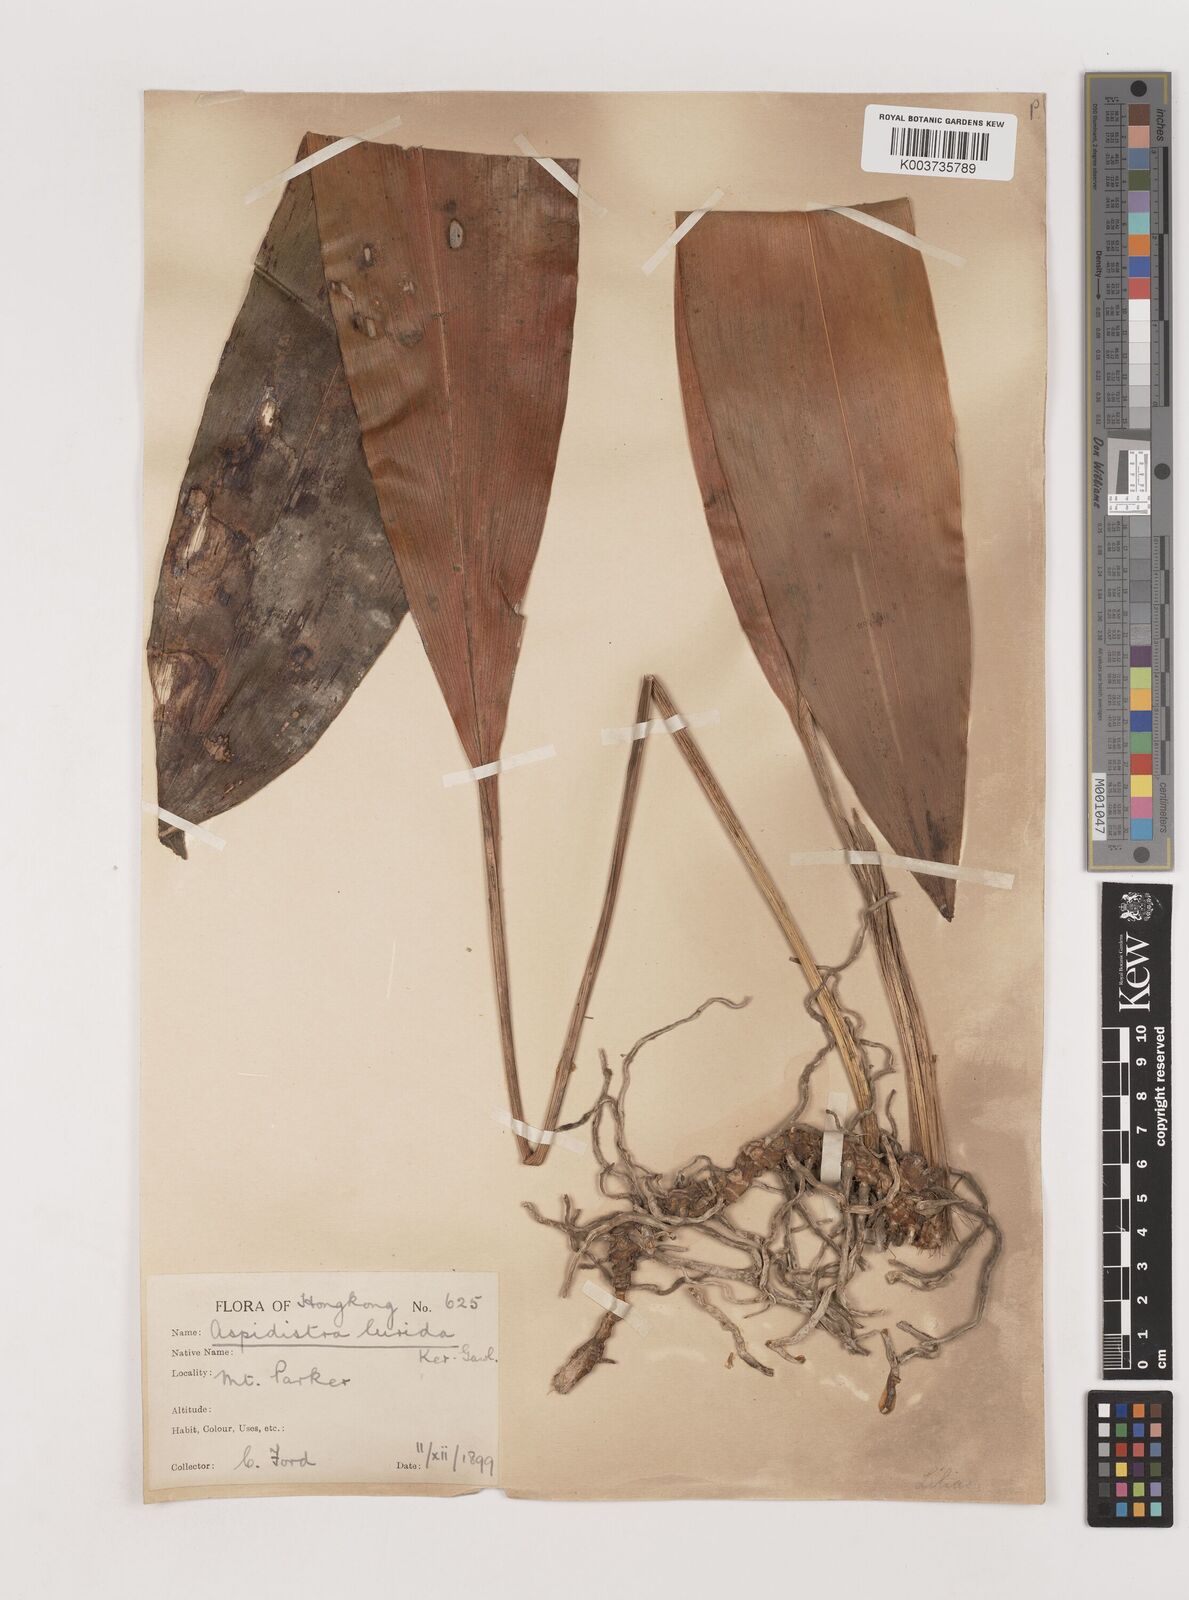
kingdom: Plantae
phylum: Tracheophyta
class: Liliopsida
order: Asparagales
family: Asparagaceae
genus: Aspidistra
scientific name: Aspidistra lurida
